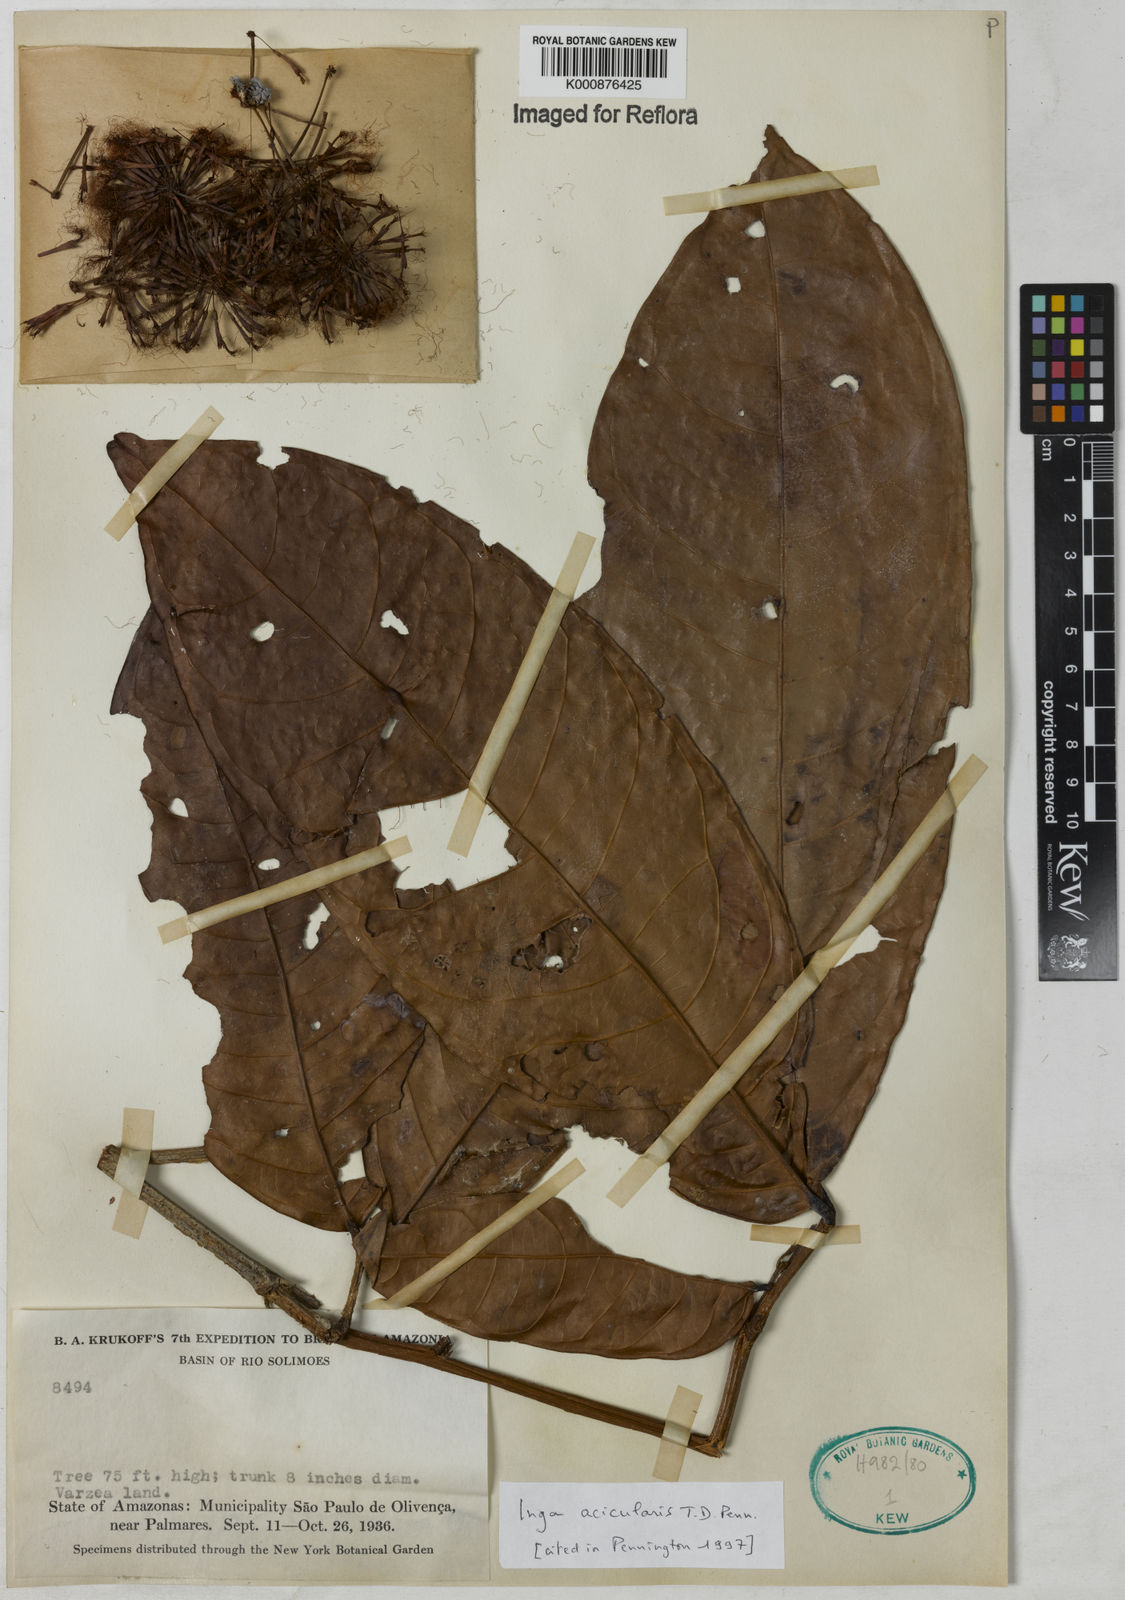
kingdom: Plantae
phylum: Tracheophyta
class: Magnoliopsida
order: Fabales
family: Fabaceae
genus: Inga
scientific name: Inga acicularis
